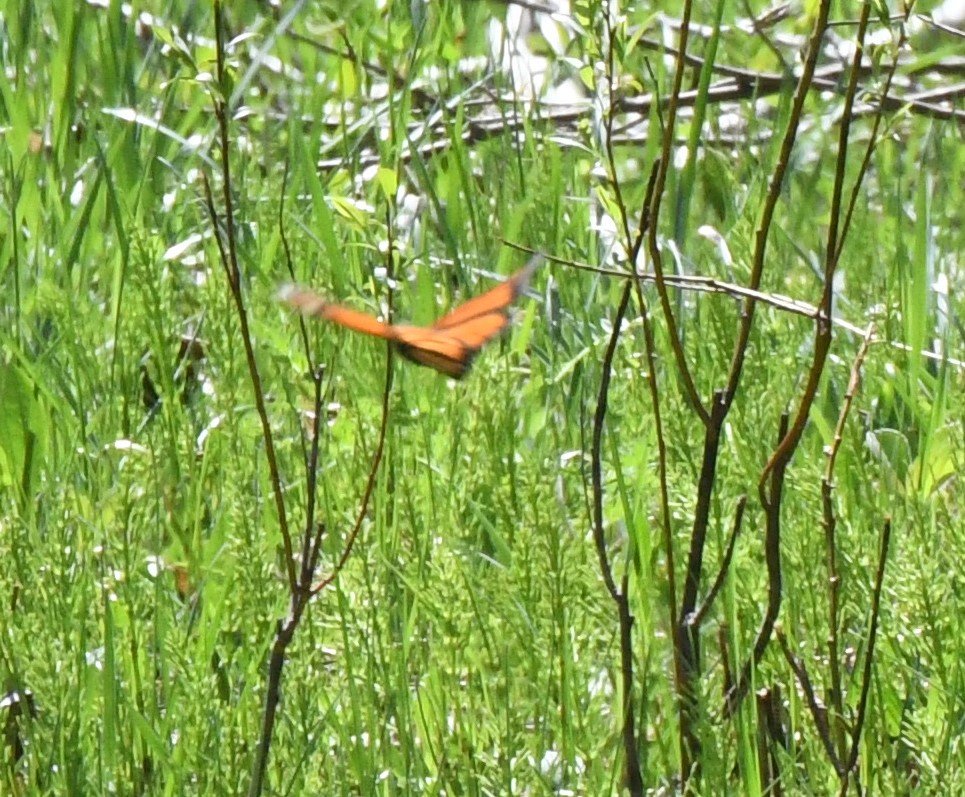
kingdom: Animalia
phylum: Arthropoda
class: Insecta
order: Lepidoptera
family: Nymphalidae
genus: Danaus
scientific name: Danaus plexippus
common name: Monarch
